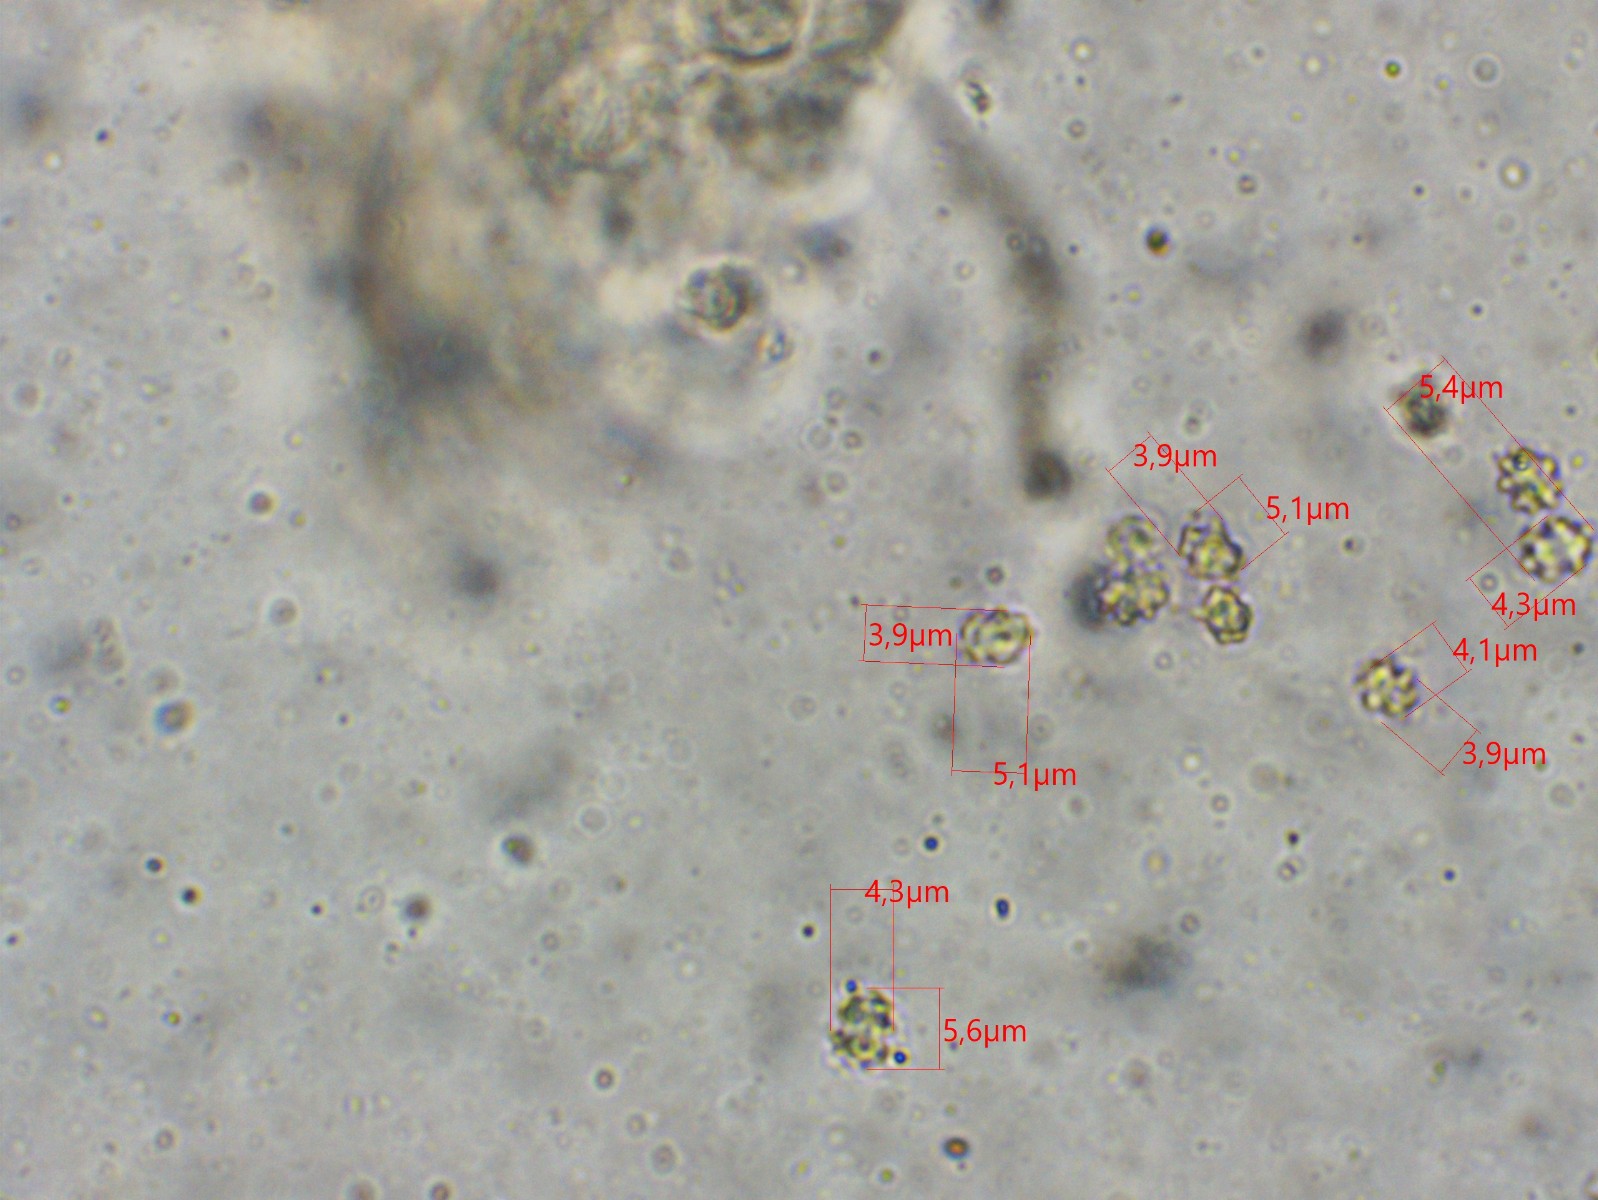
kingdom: Fungi
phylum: Basidiomycota
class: Agaricomycetes
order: Thelephorales
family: Bankeraceae
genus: Hydnellum
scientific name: Hydnellum caeruleum
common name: blålig korkpigsvamp
